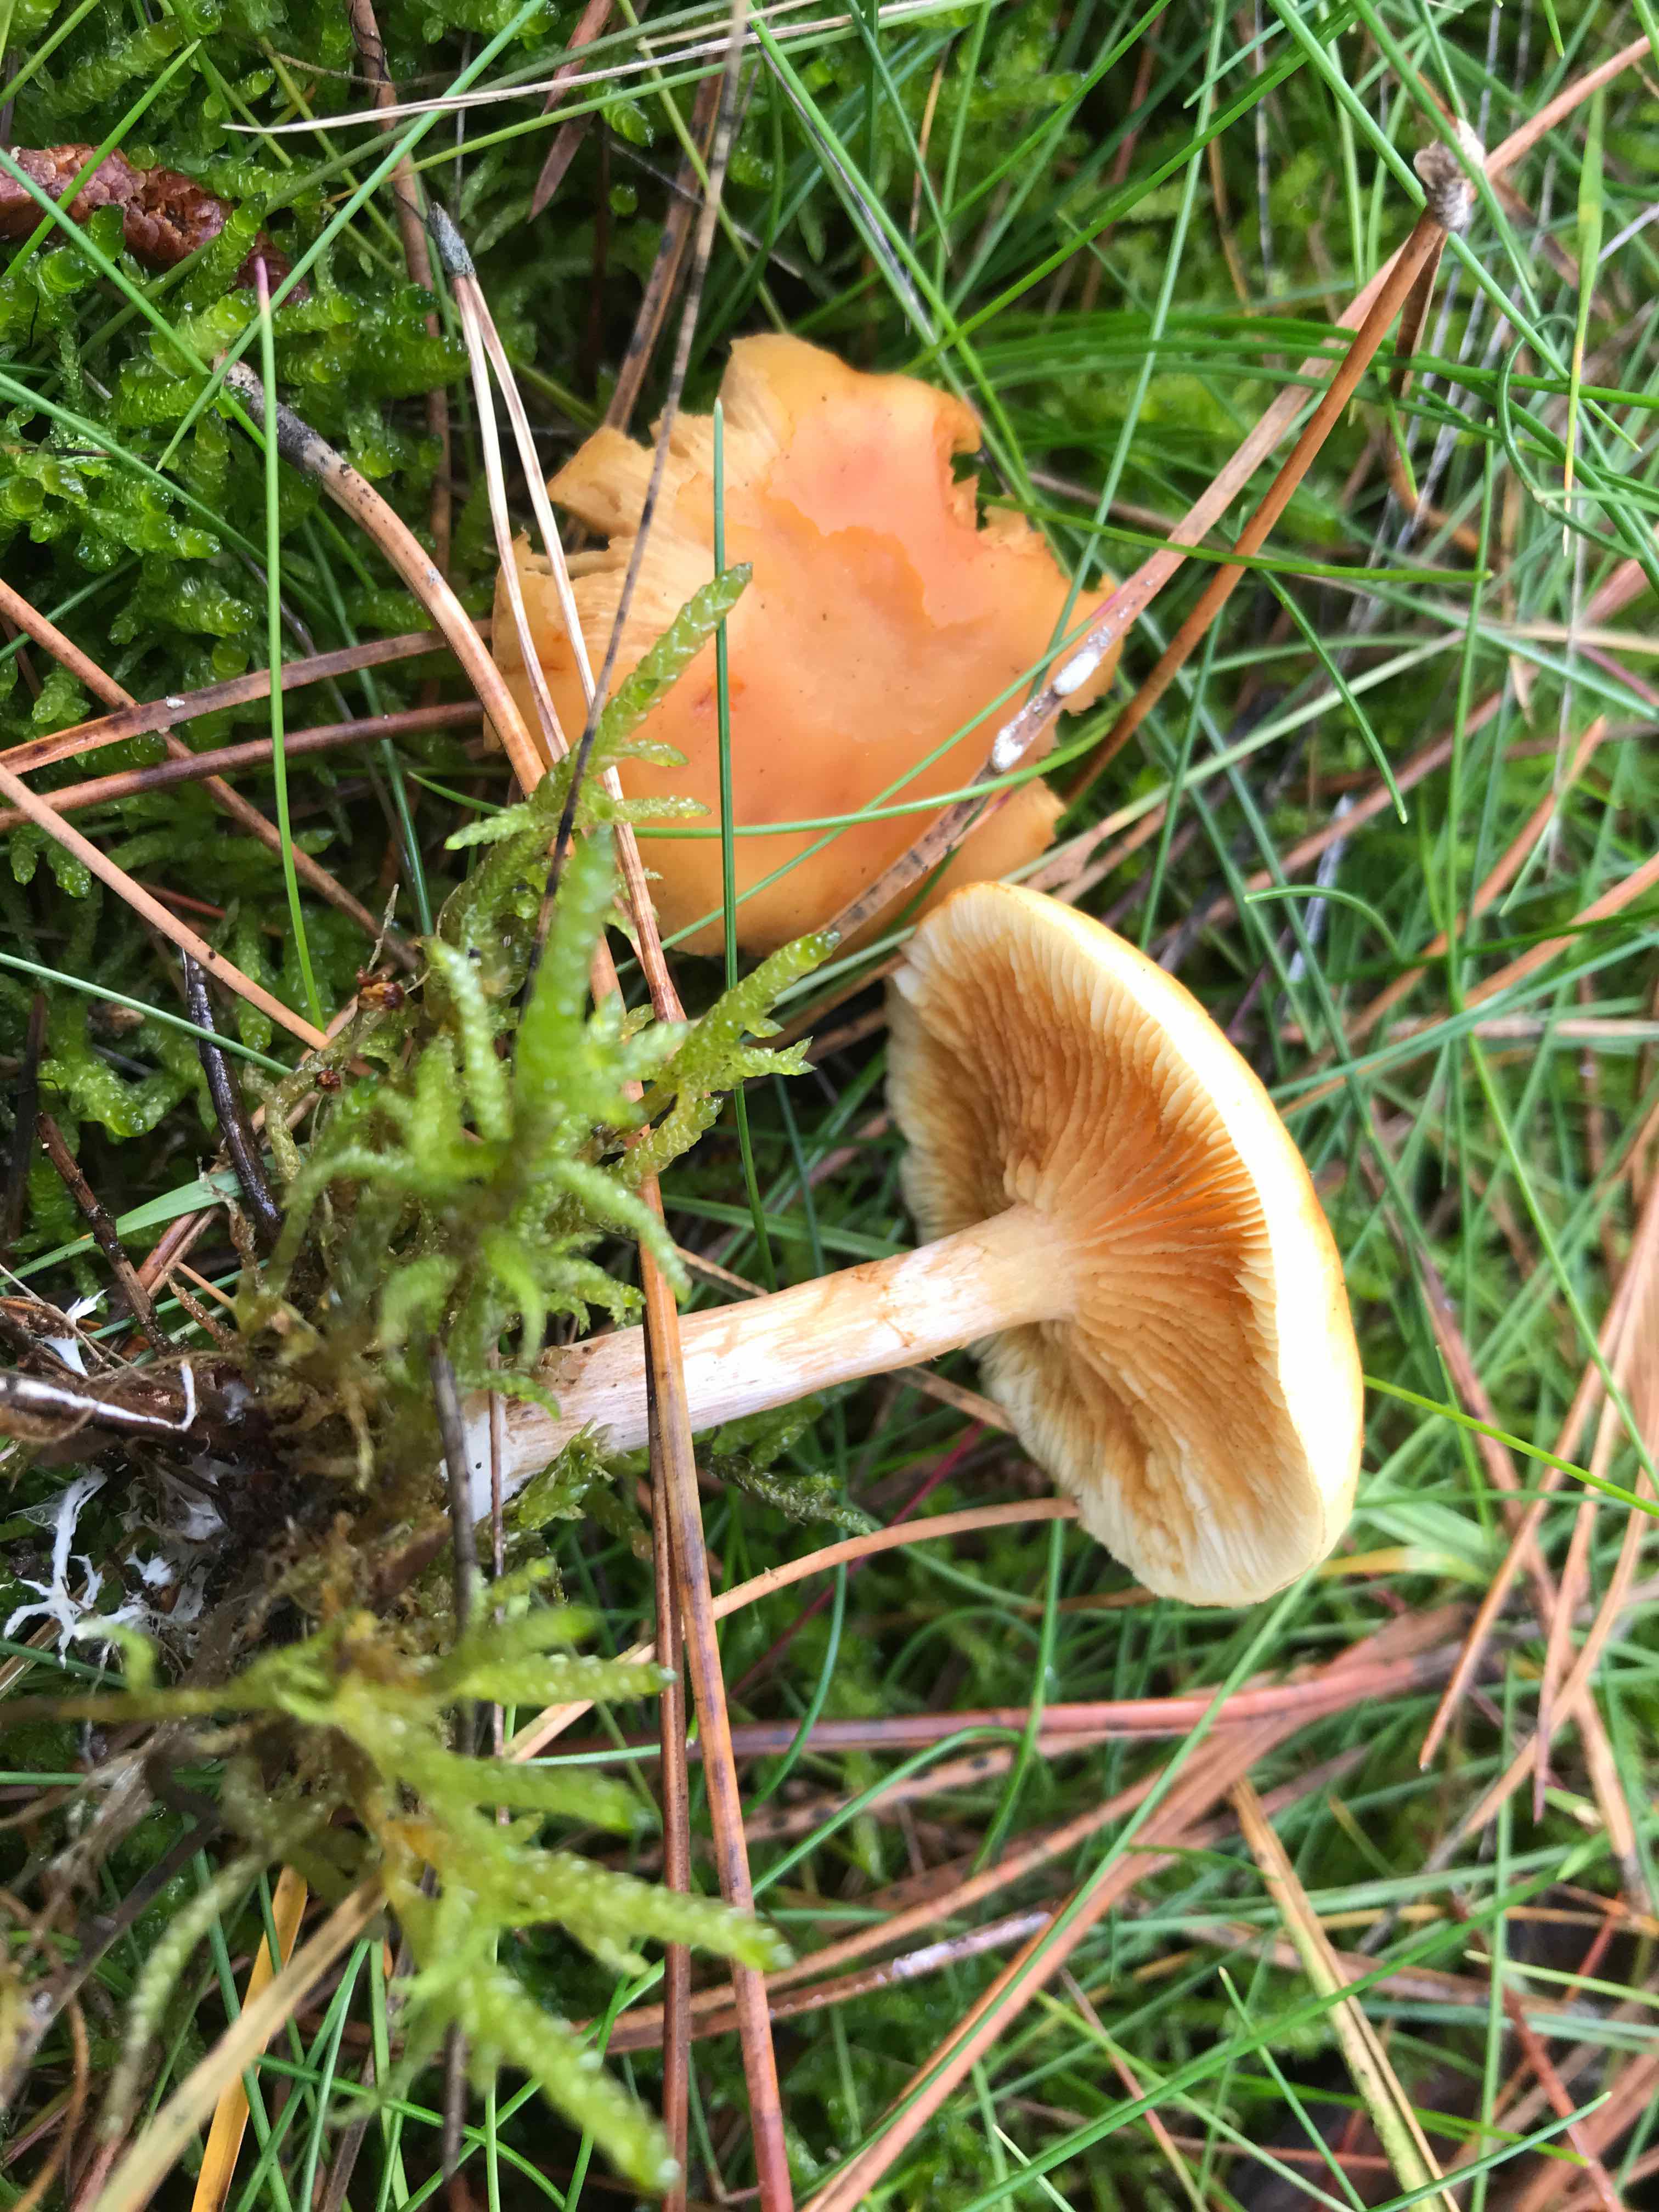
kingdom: Fungi
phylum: Basidiomycota
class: Agaricomycetes
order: Agaricales
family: Hymenogastraceae
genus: Gymnopilus
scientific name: Gymnopilus penetrans
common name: plettet flammehat
